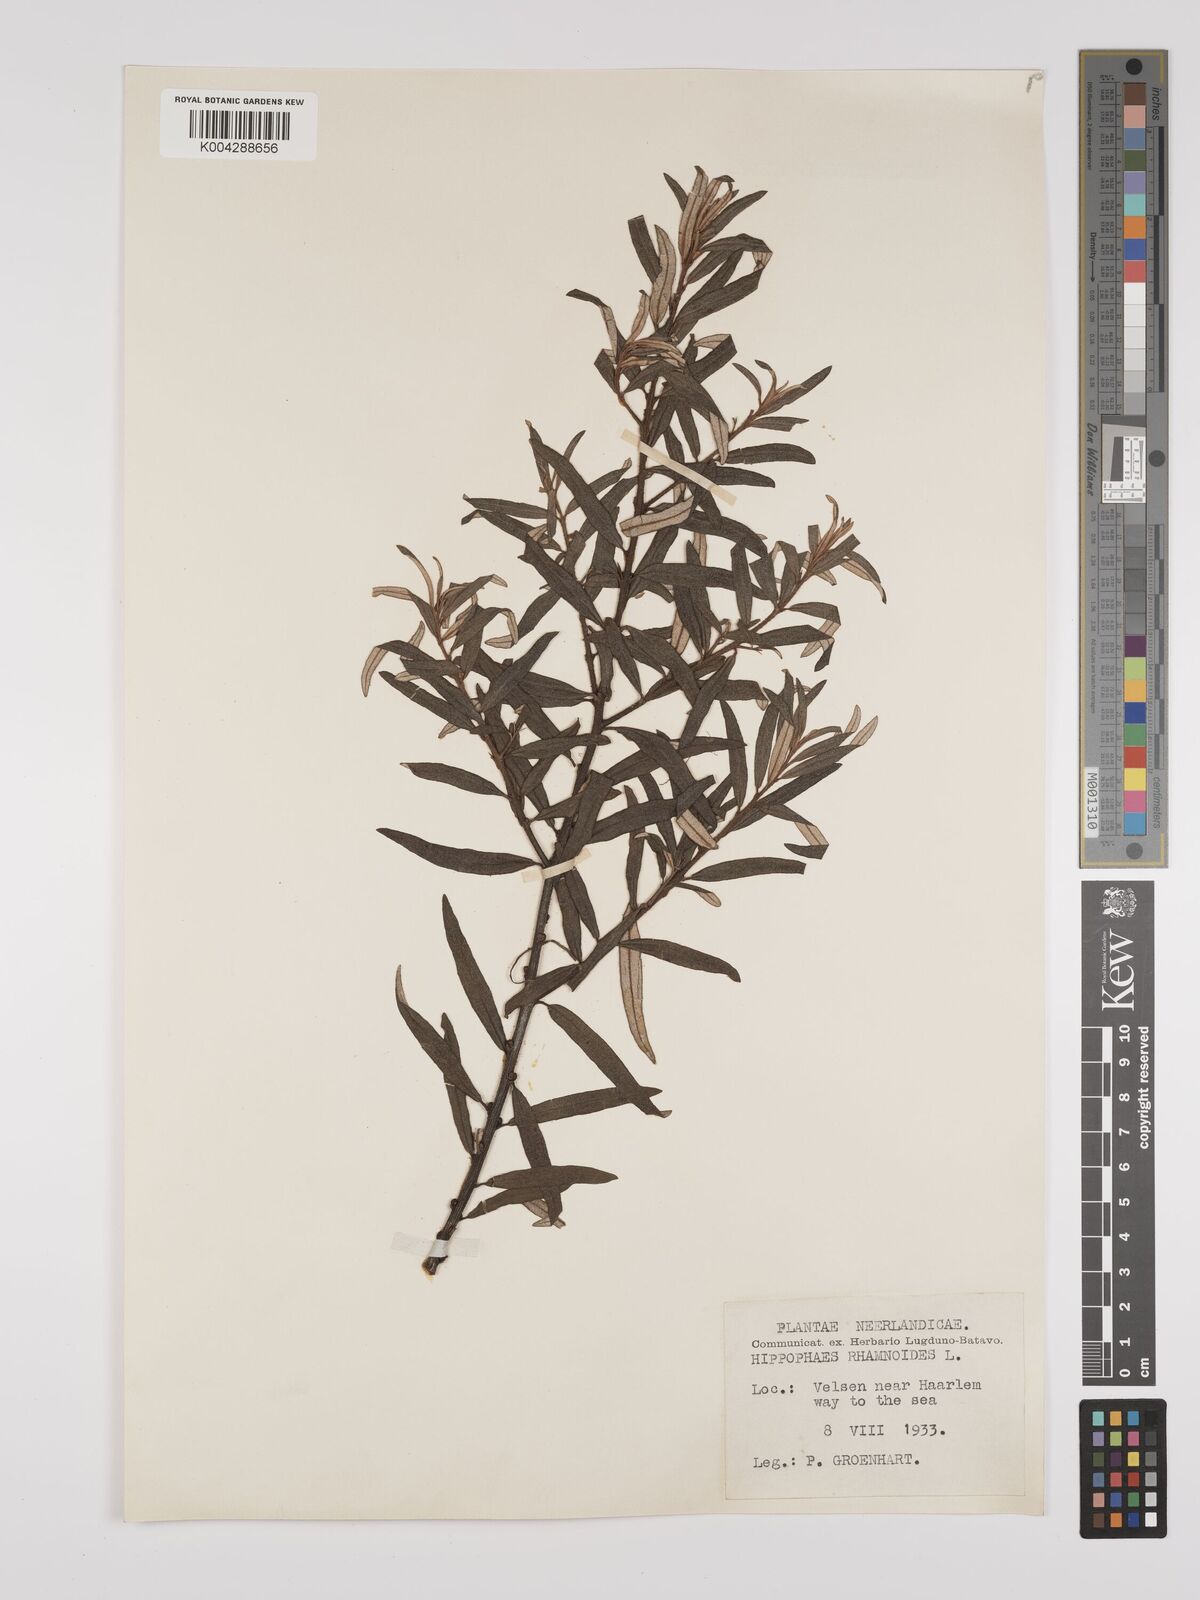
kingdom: Plantae
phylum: Tracheophyta
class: Magnoliopsida
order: Rosales
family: Elaeagnaceae
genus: Hippophae
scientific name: Hippophae rhamnoides
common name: Sea-buckthorn
